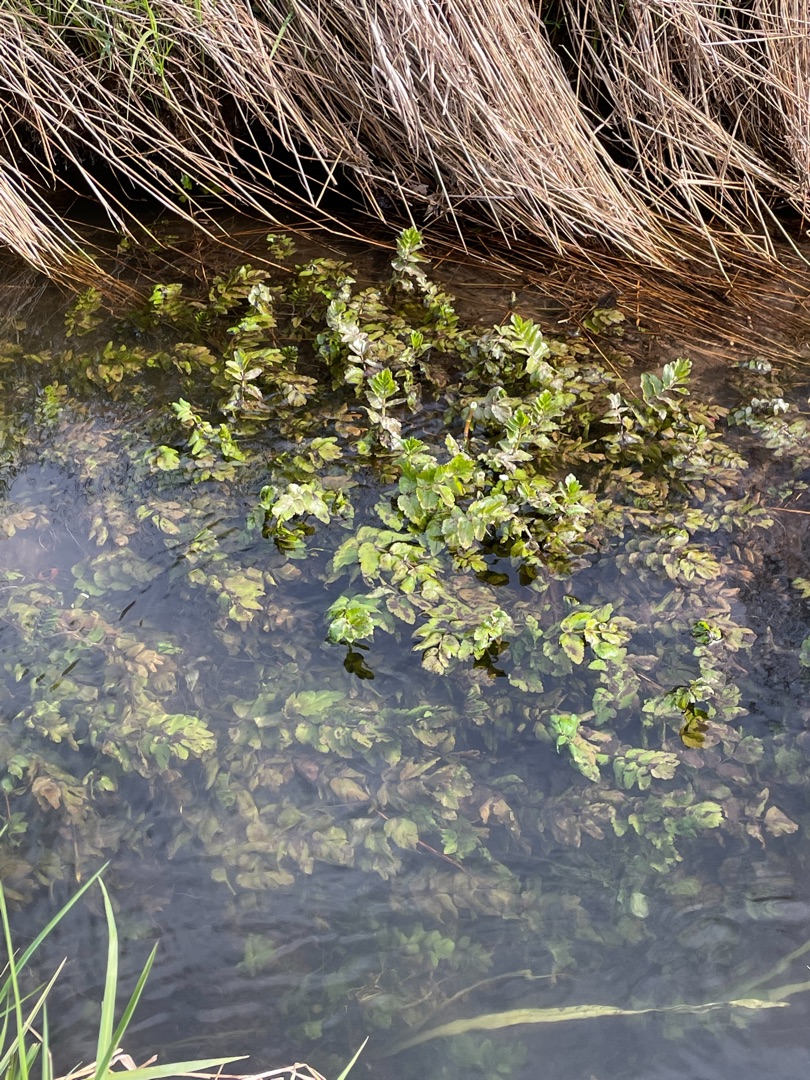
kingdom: Plantae
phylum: Tracheophyta
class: Magnoliopsida
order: Apiales
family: Apiaceae
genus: Berula
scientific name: Berula erecta
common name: Sideskærm
